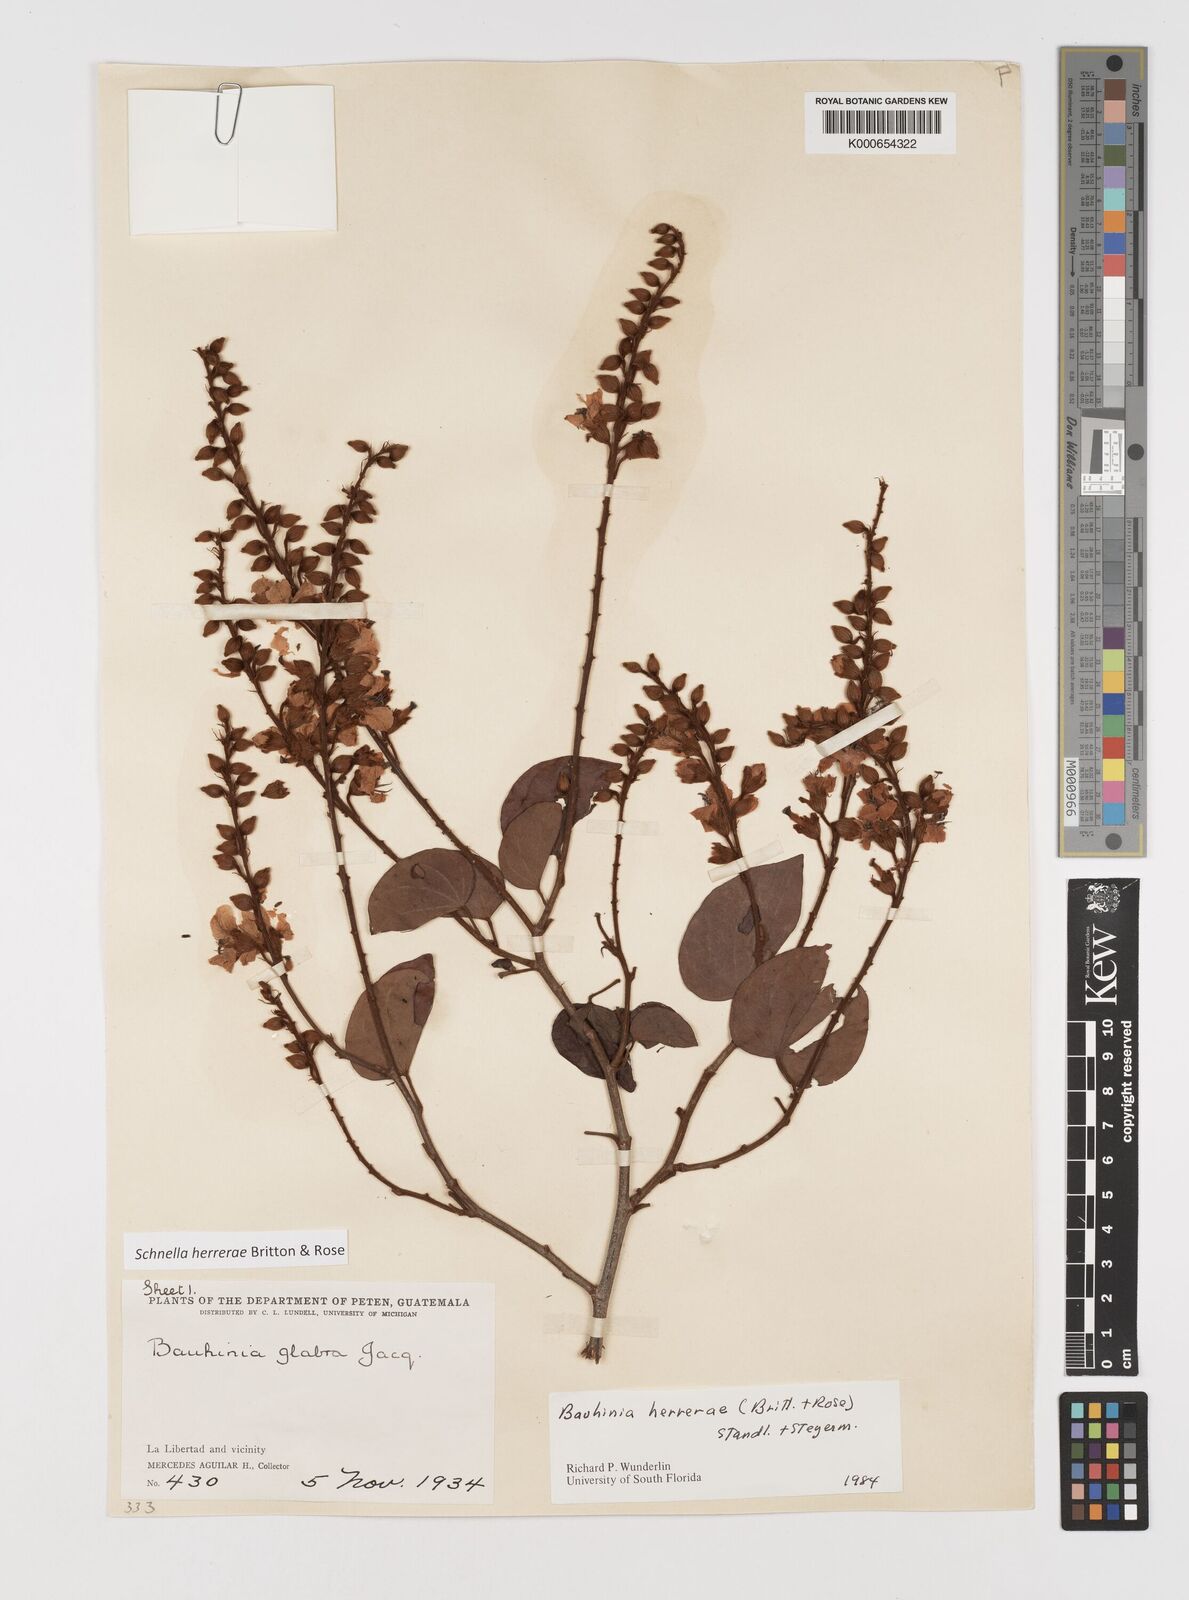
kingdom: Plantae
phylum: Tracheophyta
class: Magnoliopsida
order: Fabales
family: Fabaceae
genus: Schnella
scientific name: Schnella herrerae
